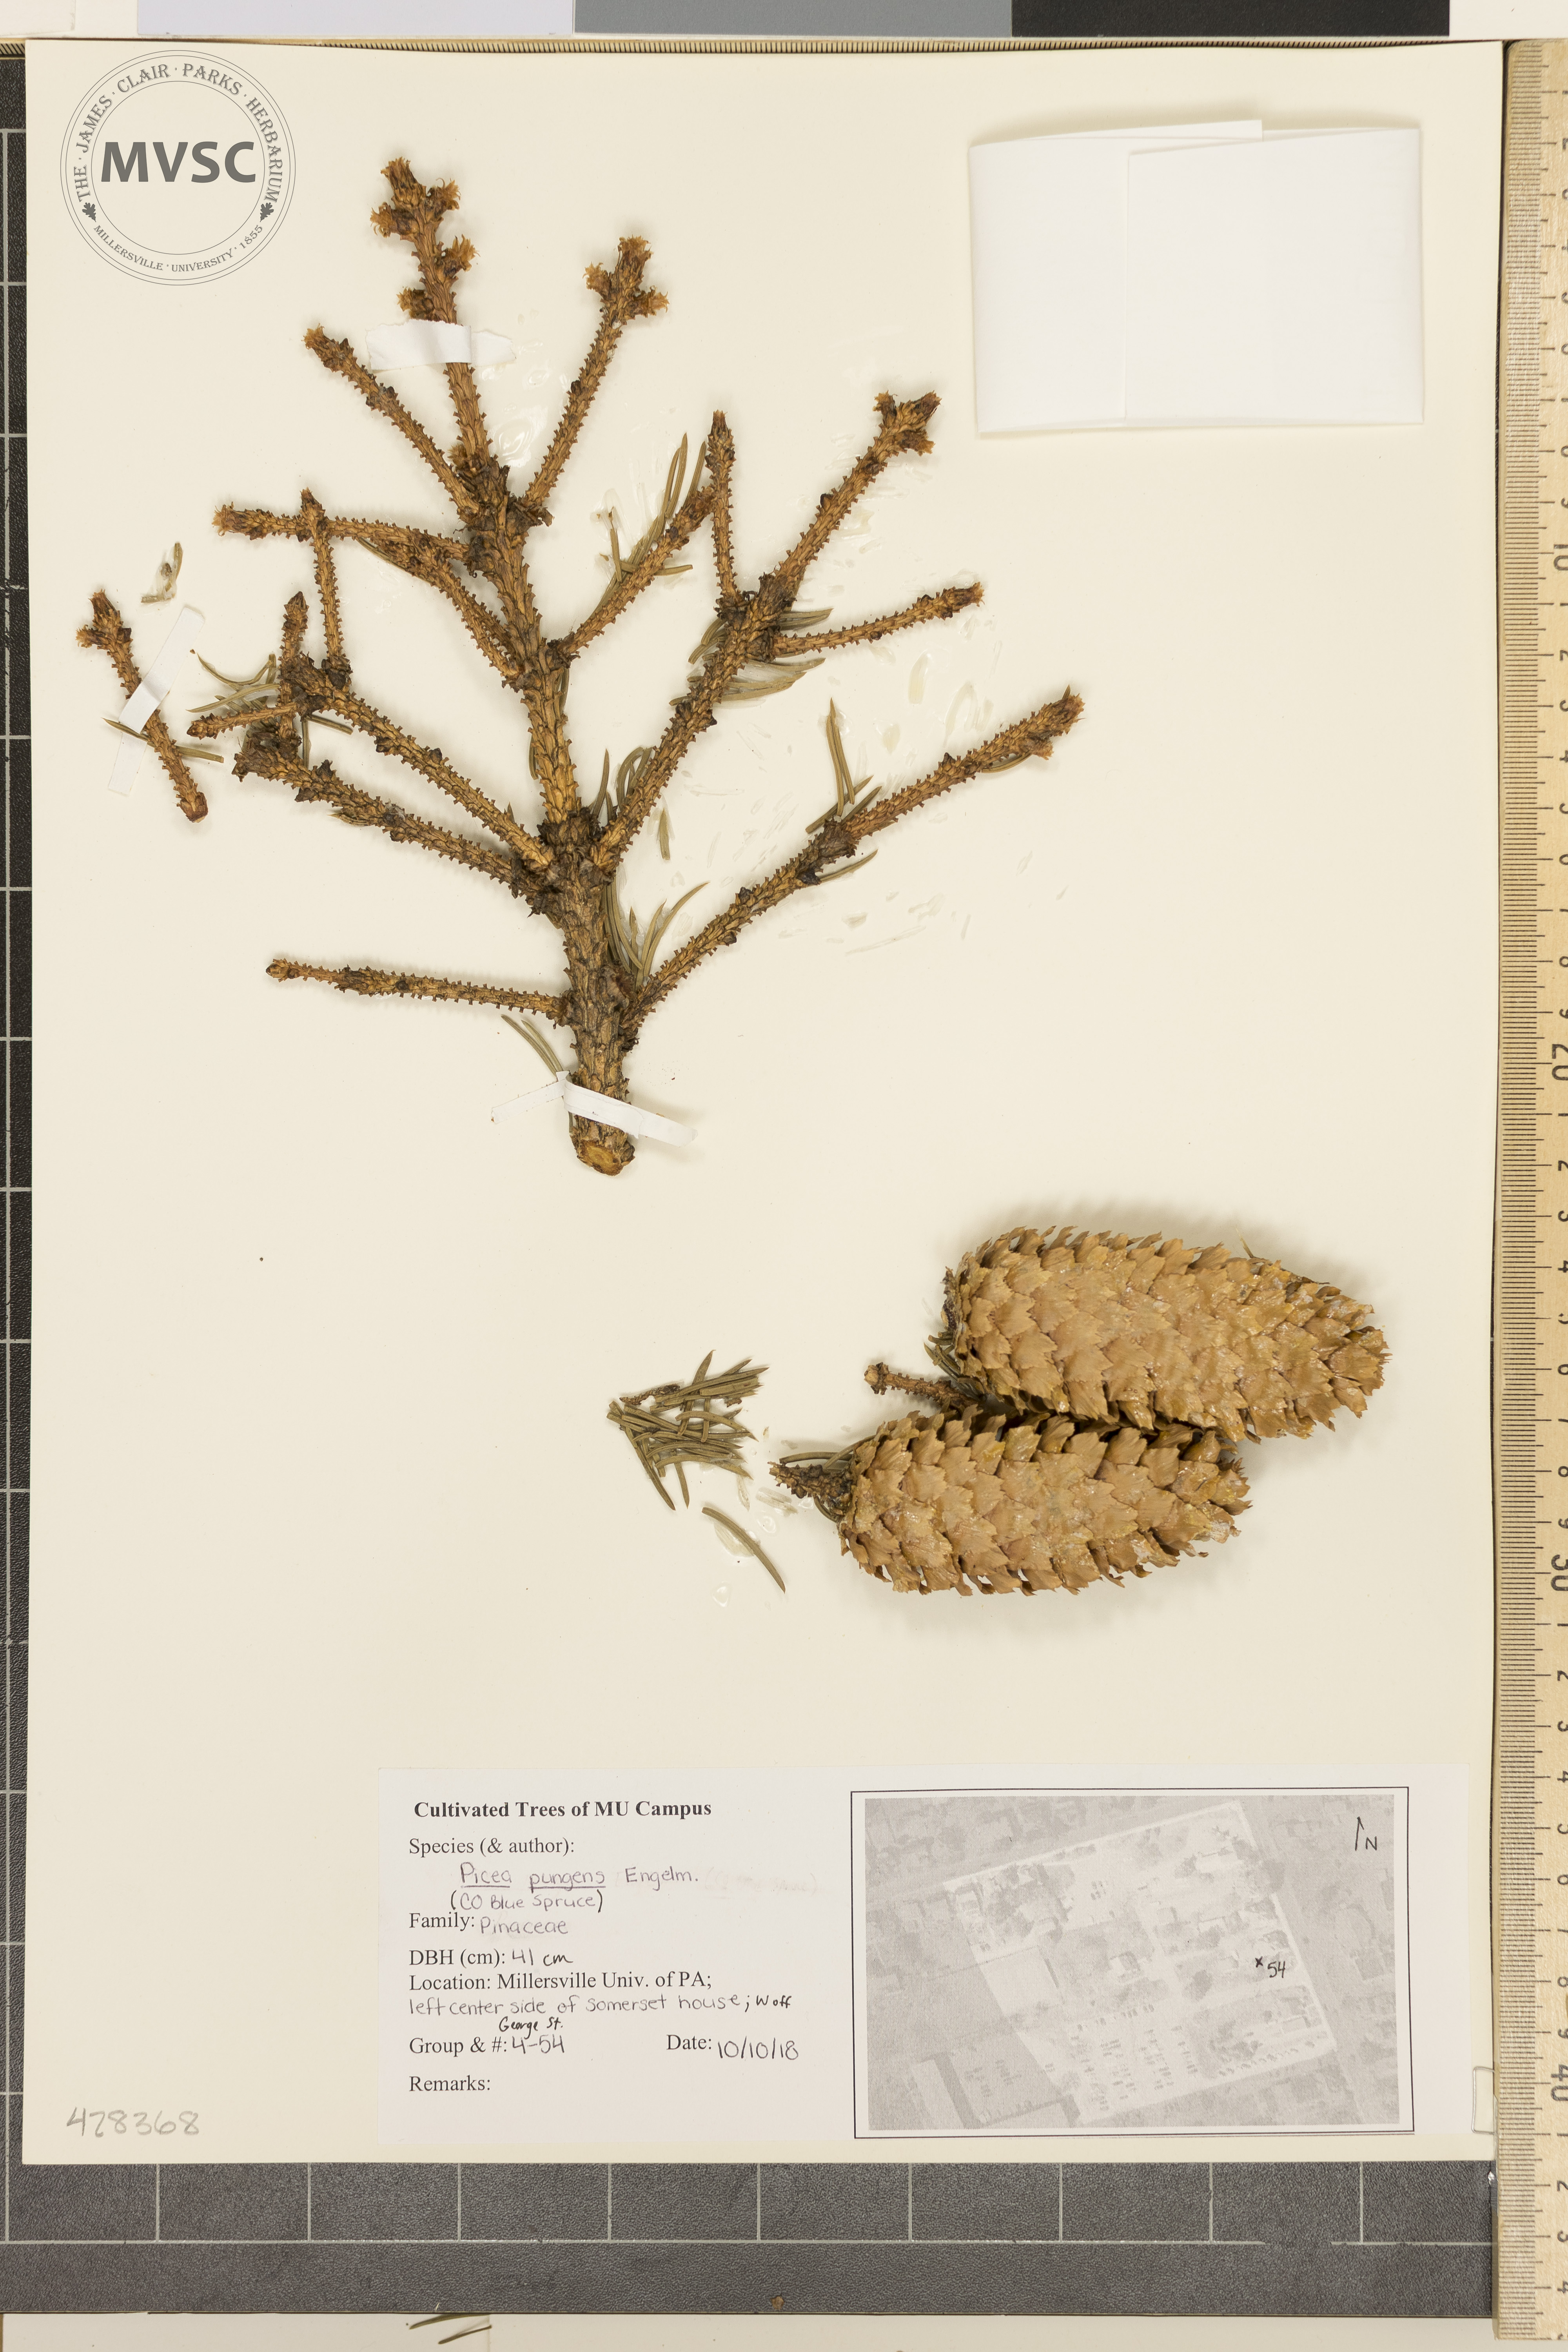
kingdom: Plantae
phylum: Tracheophyta
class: Pinopsida
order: Pinales
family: Pinaceae
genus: Picea
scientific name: Picea pungens
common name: Colorado Blue Spruce
